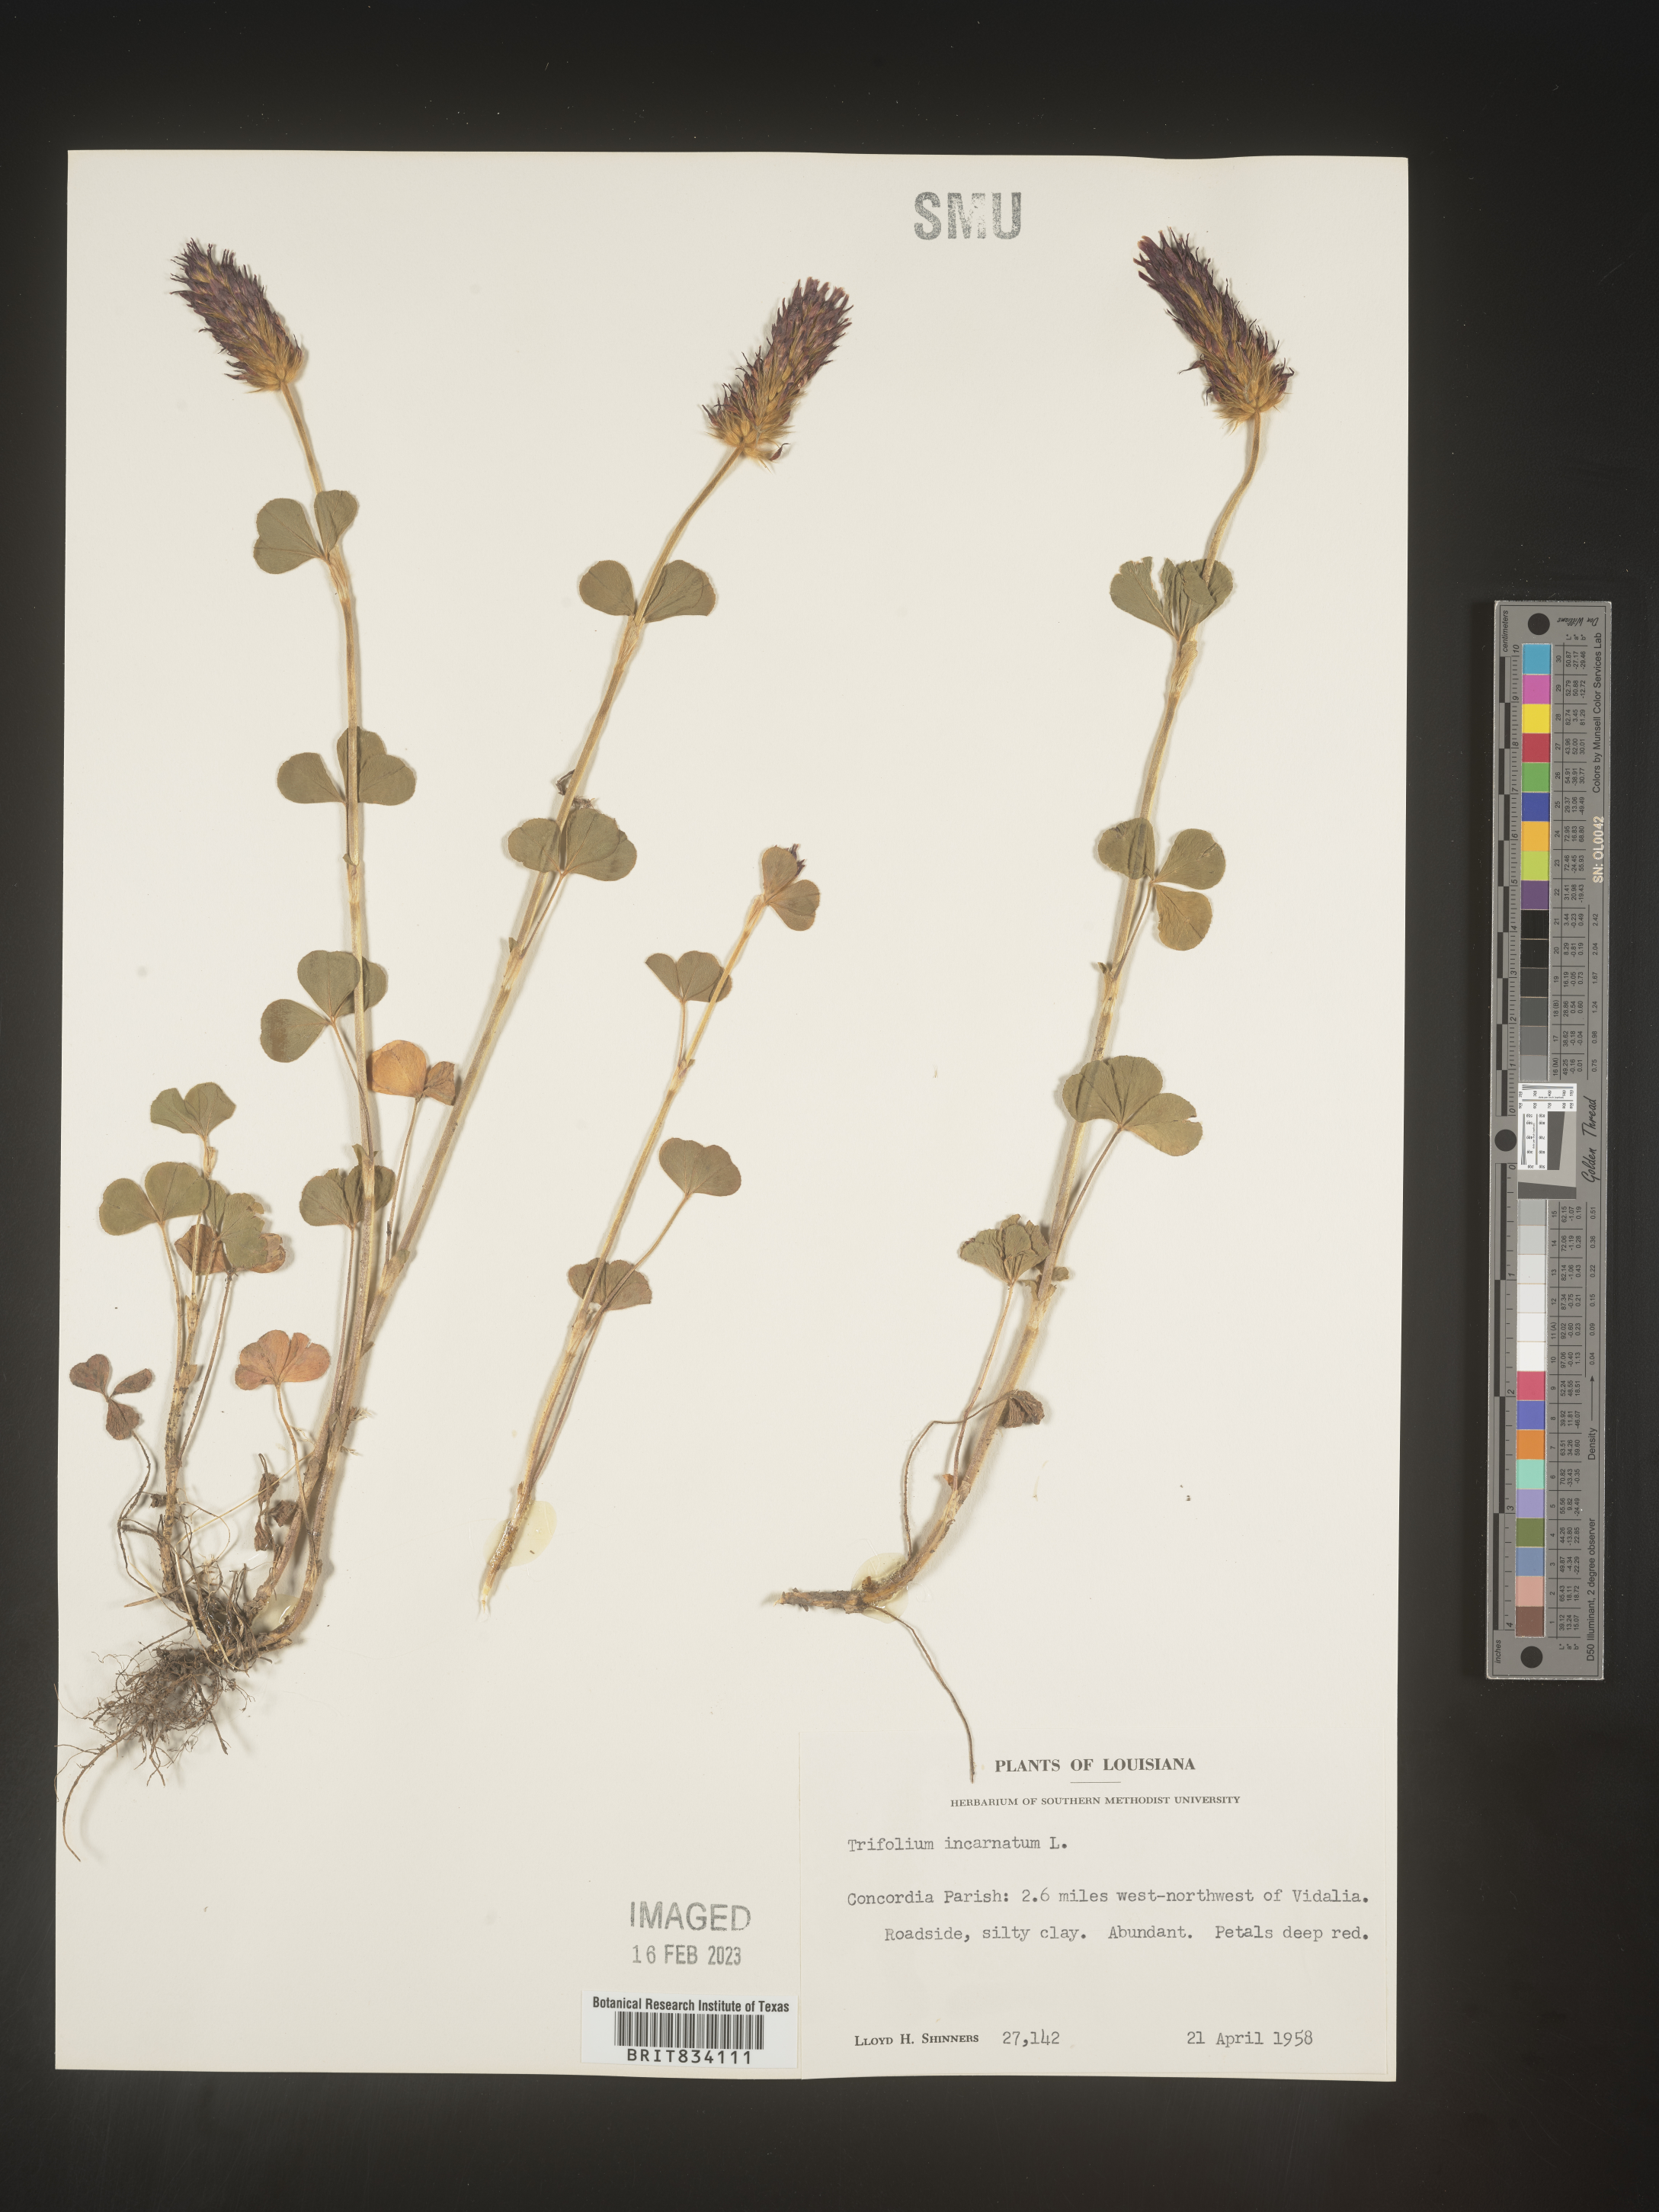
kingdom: Plantae
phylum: Tracheophyta
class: Magnoliopsida
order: Fabales
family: Fabaceae
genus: Trifolium
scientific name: Trifolium incarnatum
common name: Crimson clover
